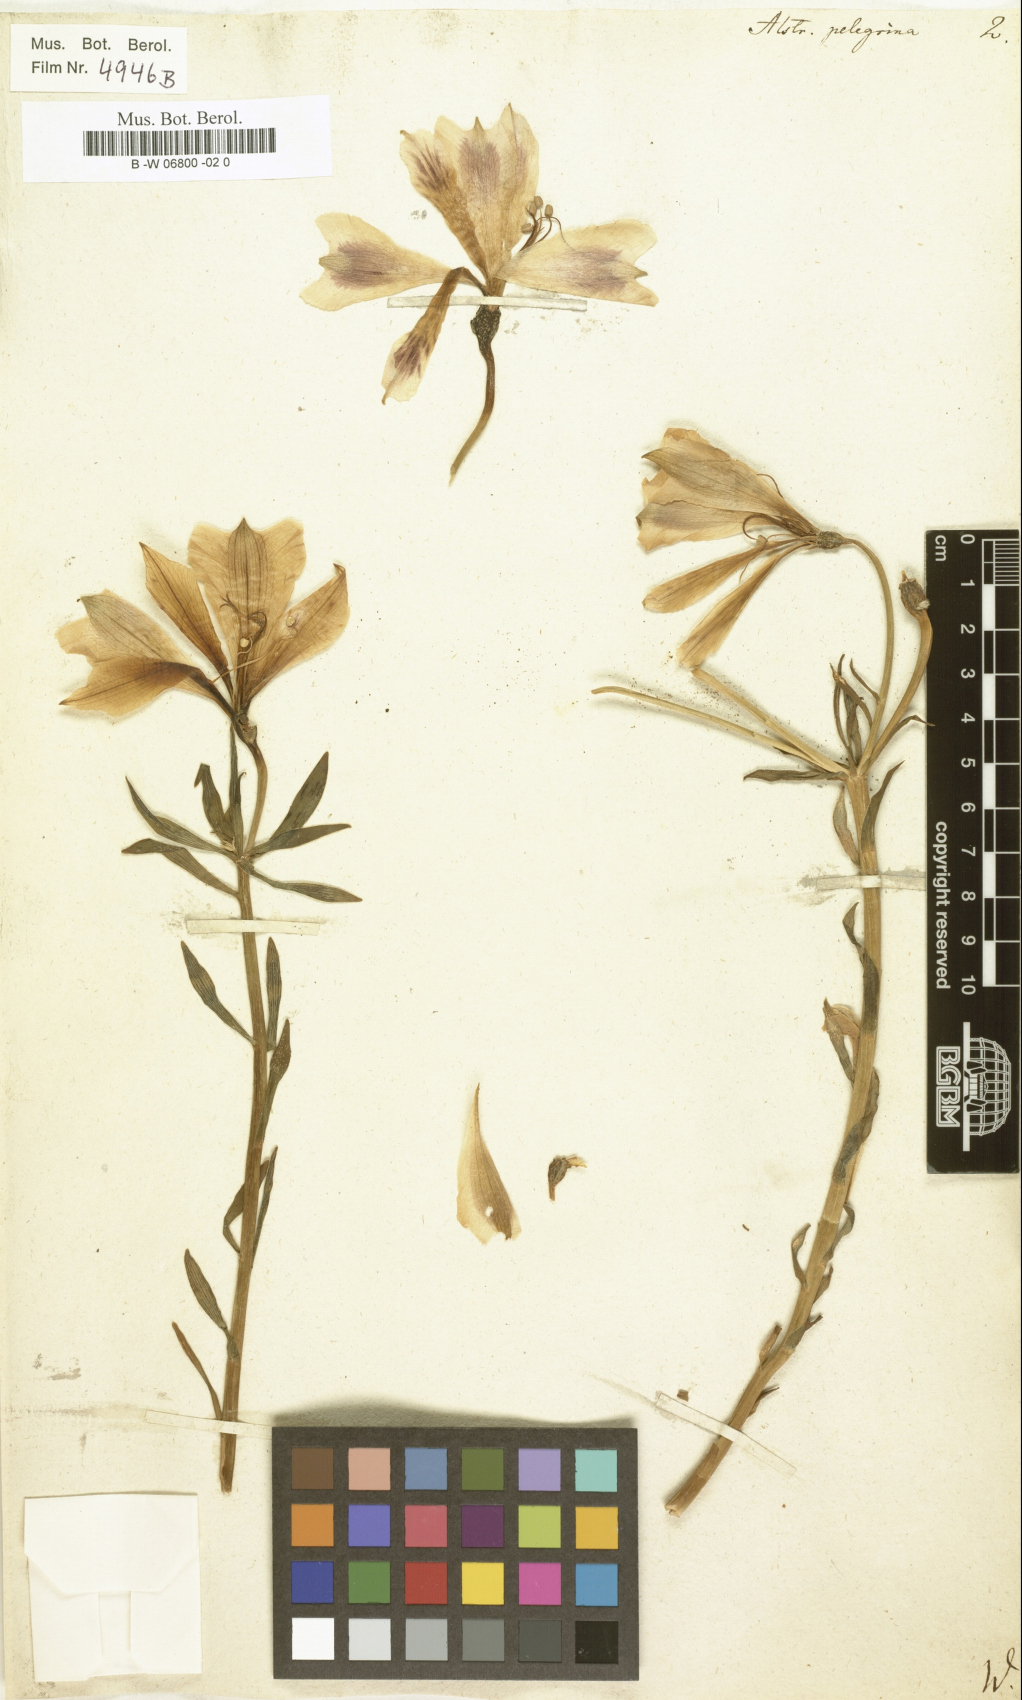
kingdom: Plantae
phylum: Tracheophyta
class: Liliopsida
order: Liliales
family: Alstroemeriaceae
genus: Alstroemeria
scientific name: Alstroemeria pelegrina
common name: Peruvian-lily
